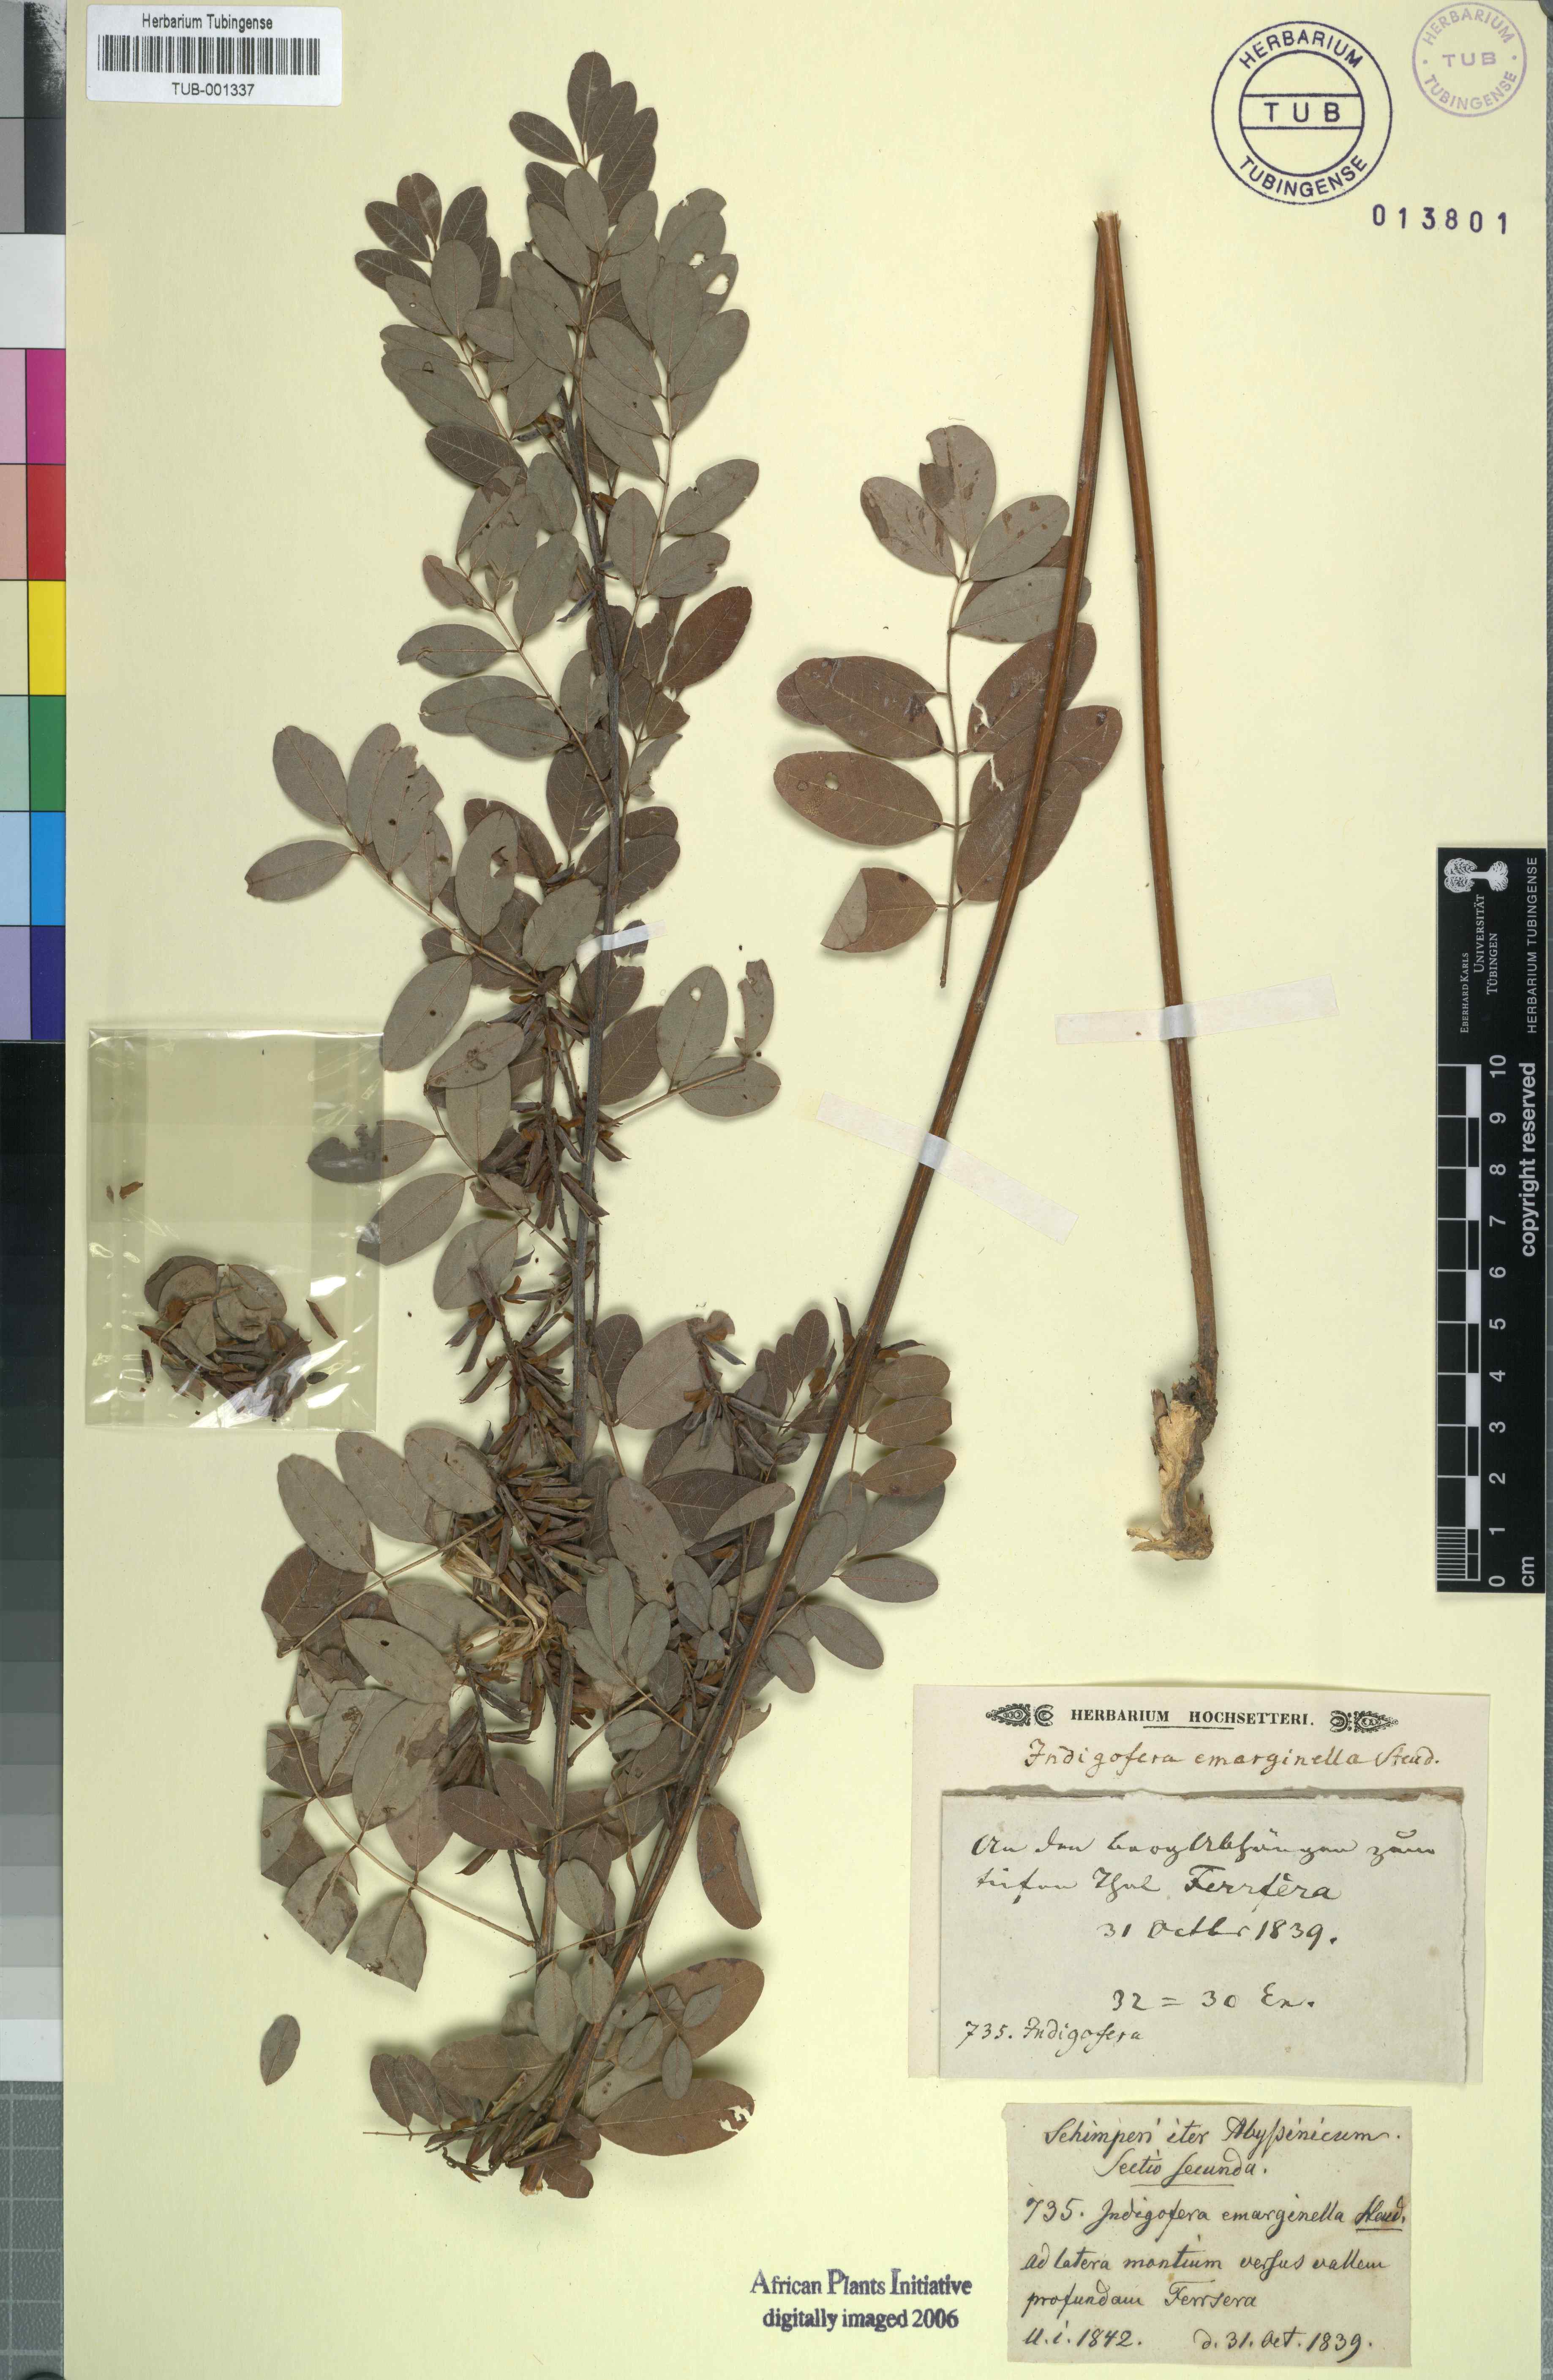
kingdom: Plantae
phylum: Tracheophyta
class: Magnoliopsida
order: Fabales
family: Fabaceae
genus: Indigofera
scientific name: Indigofera emarginella
